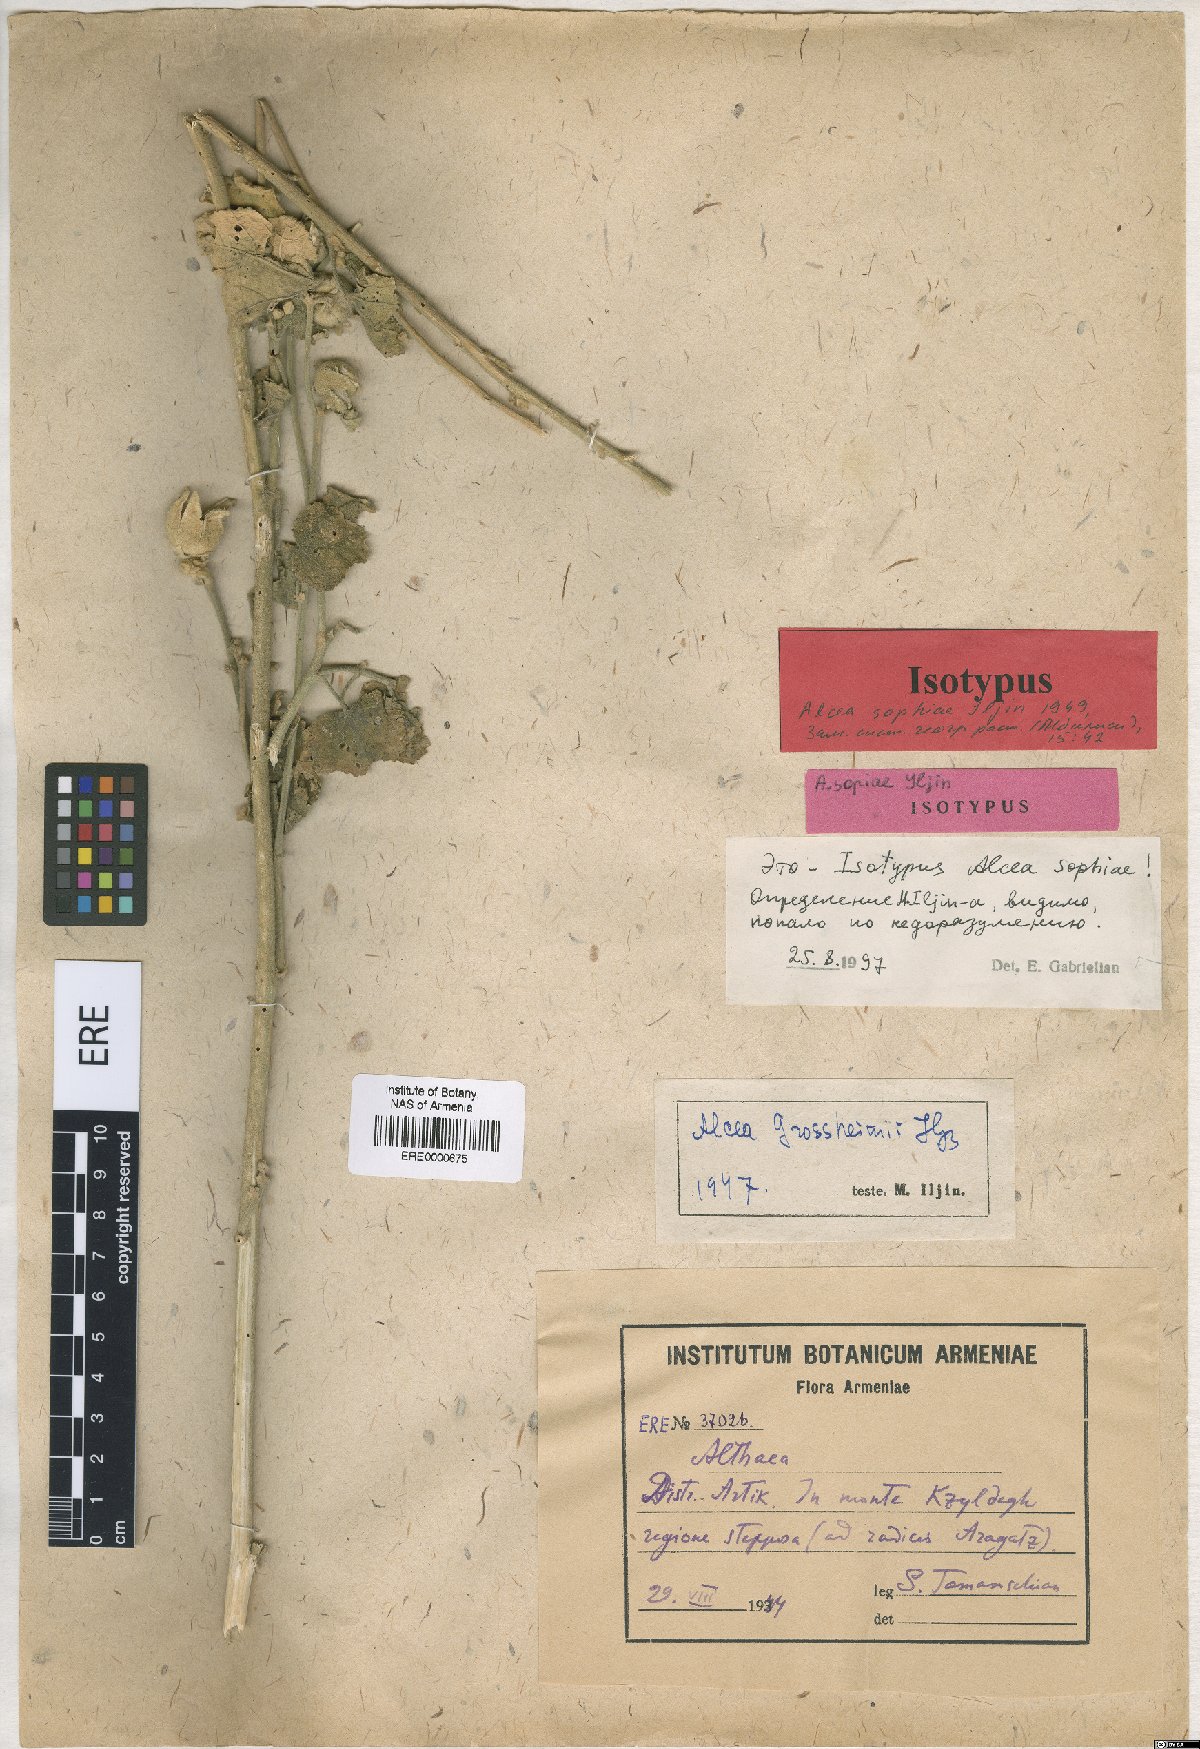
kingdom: Plantae
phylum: Tracheophyta
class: Magnoliopsida
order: Malvales
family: Malvaceae
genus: Alcea
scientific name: Alcea sophiae
